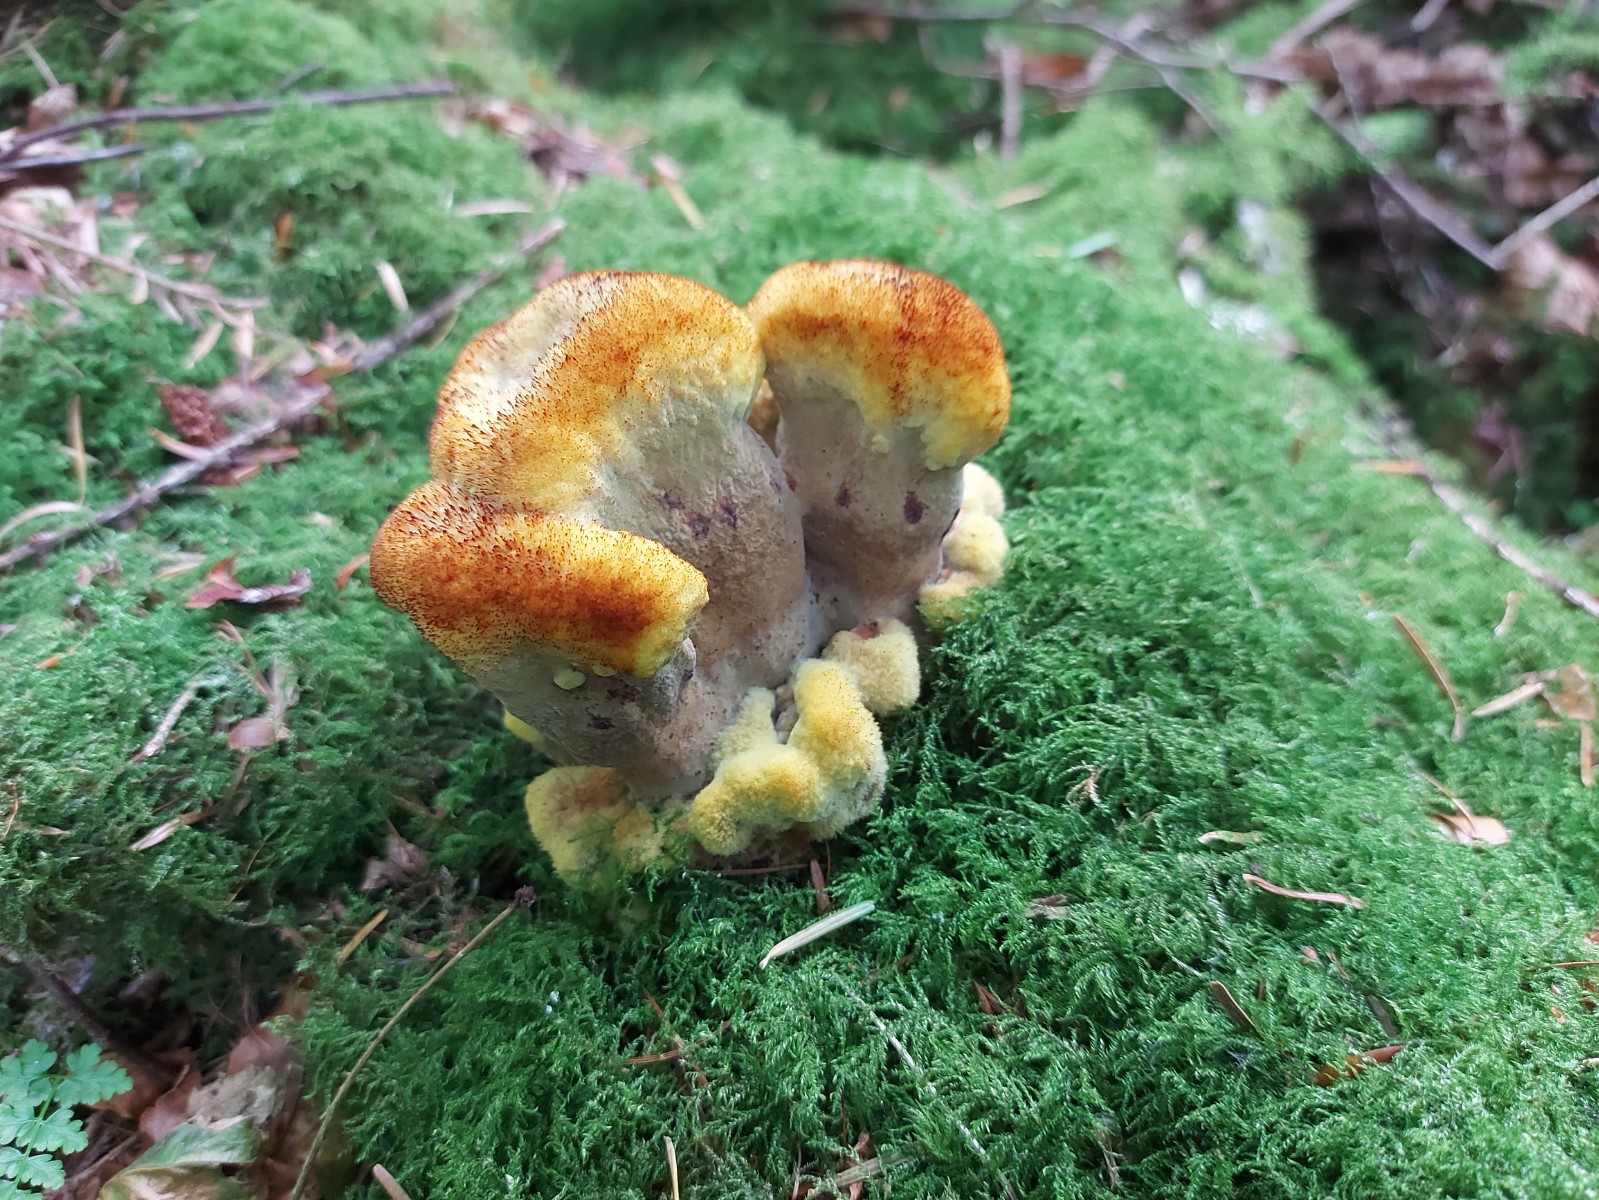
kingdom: Fungi
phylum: Basidiomycota
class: Agaricomycetes
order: Polyporales
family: Laetiporaceae
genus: Phaeolus
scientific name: Phaeolus schweinitzii
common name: brunporesvamp
